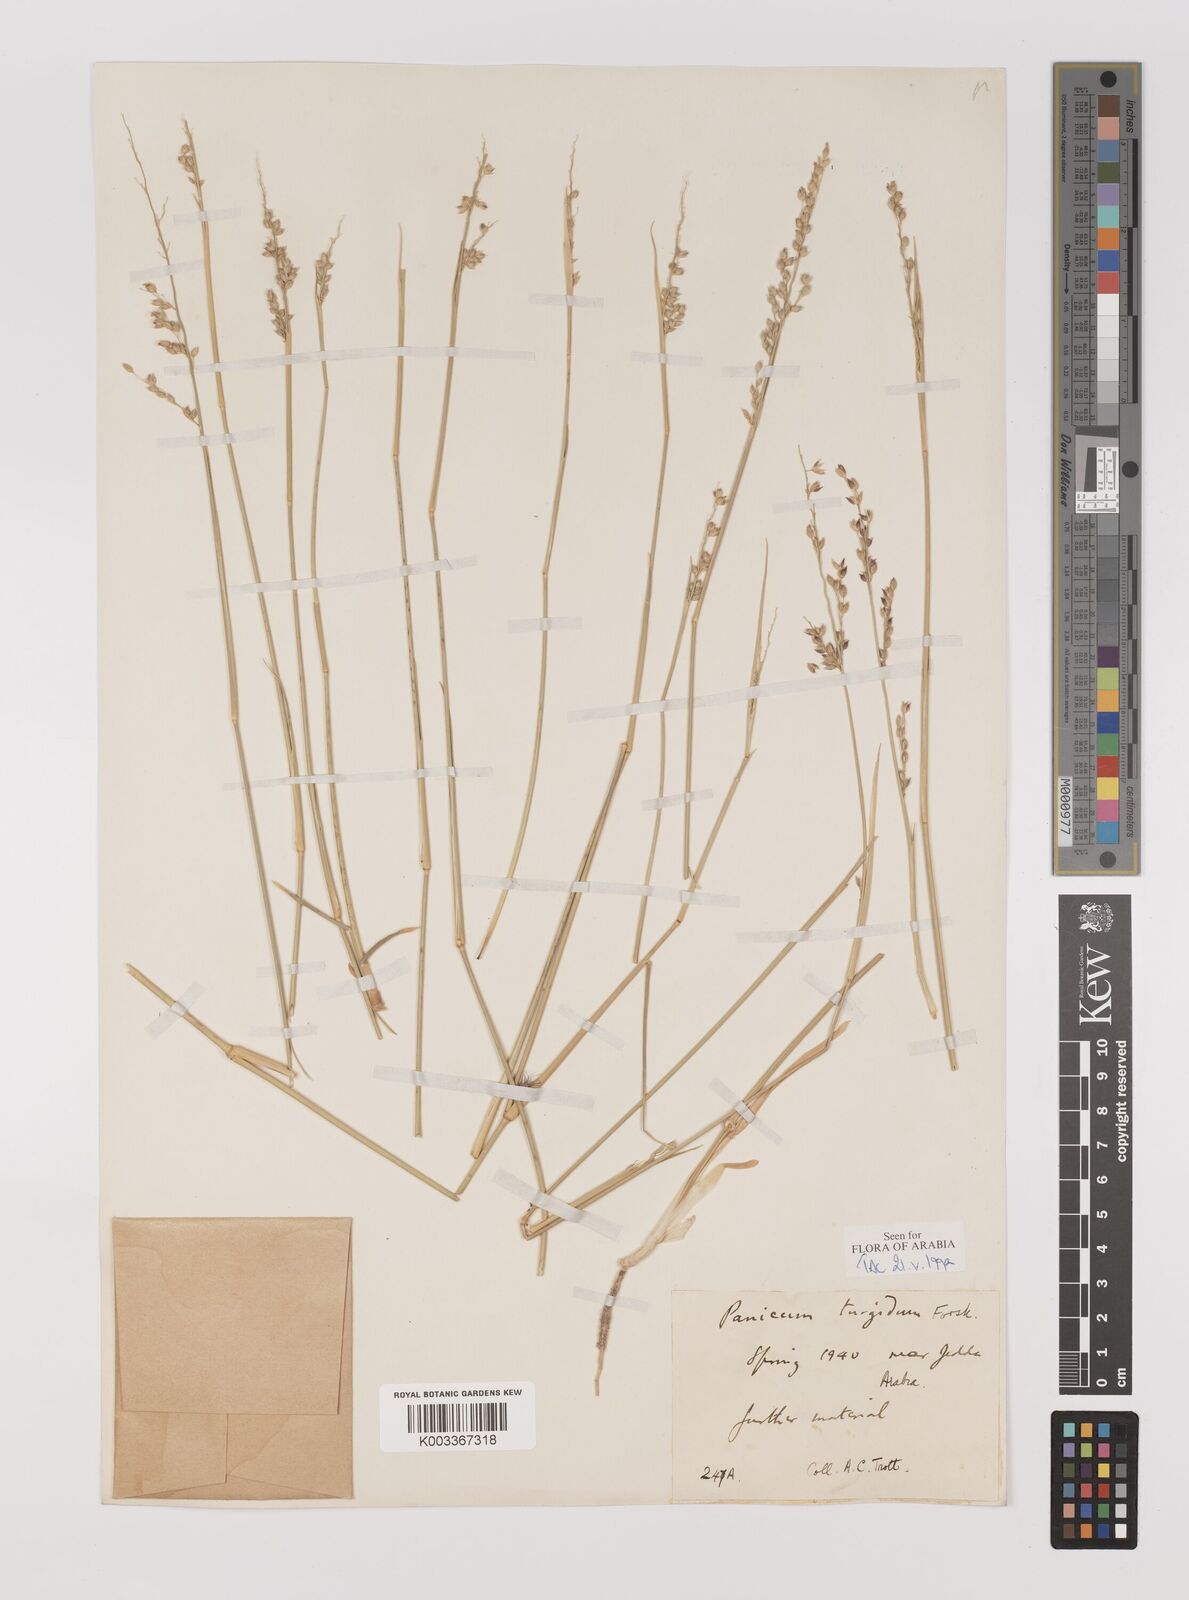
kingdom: Plantae
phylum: Tracheophyta
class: Liliopsida
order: Poales
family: Poaceae
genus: Panicum
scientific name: Panicum turgidum
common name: Desert grass
